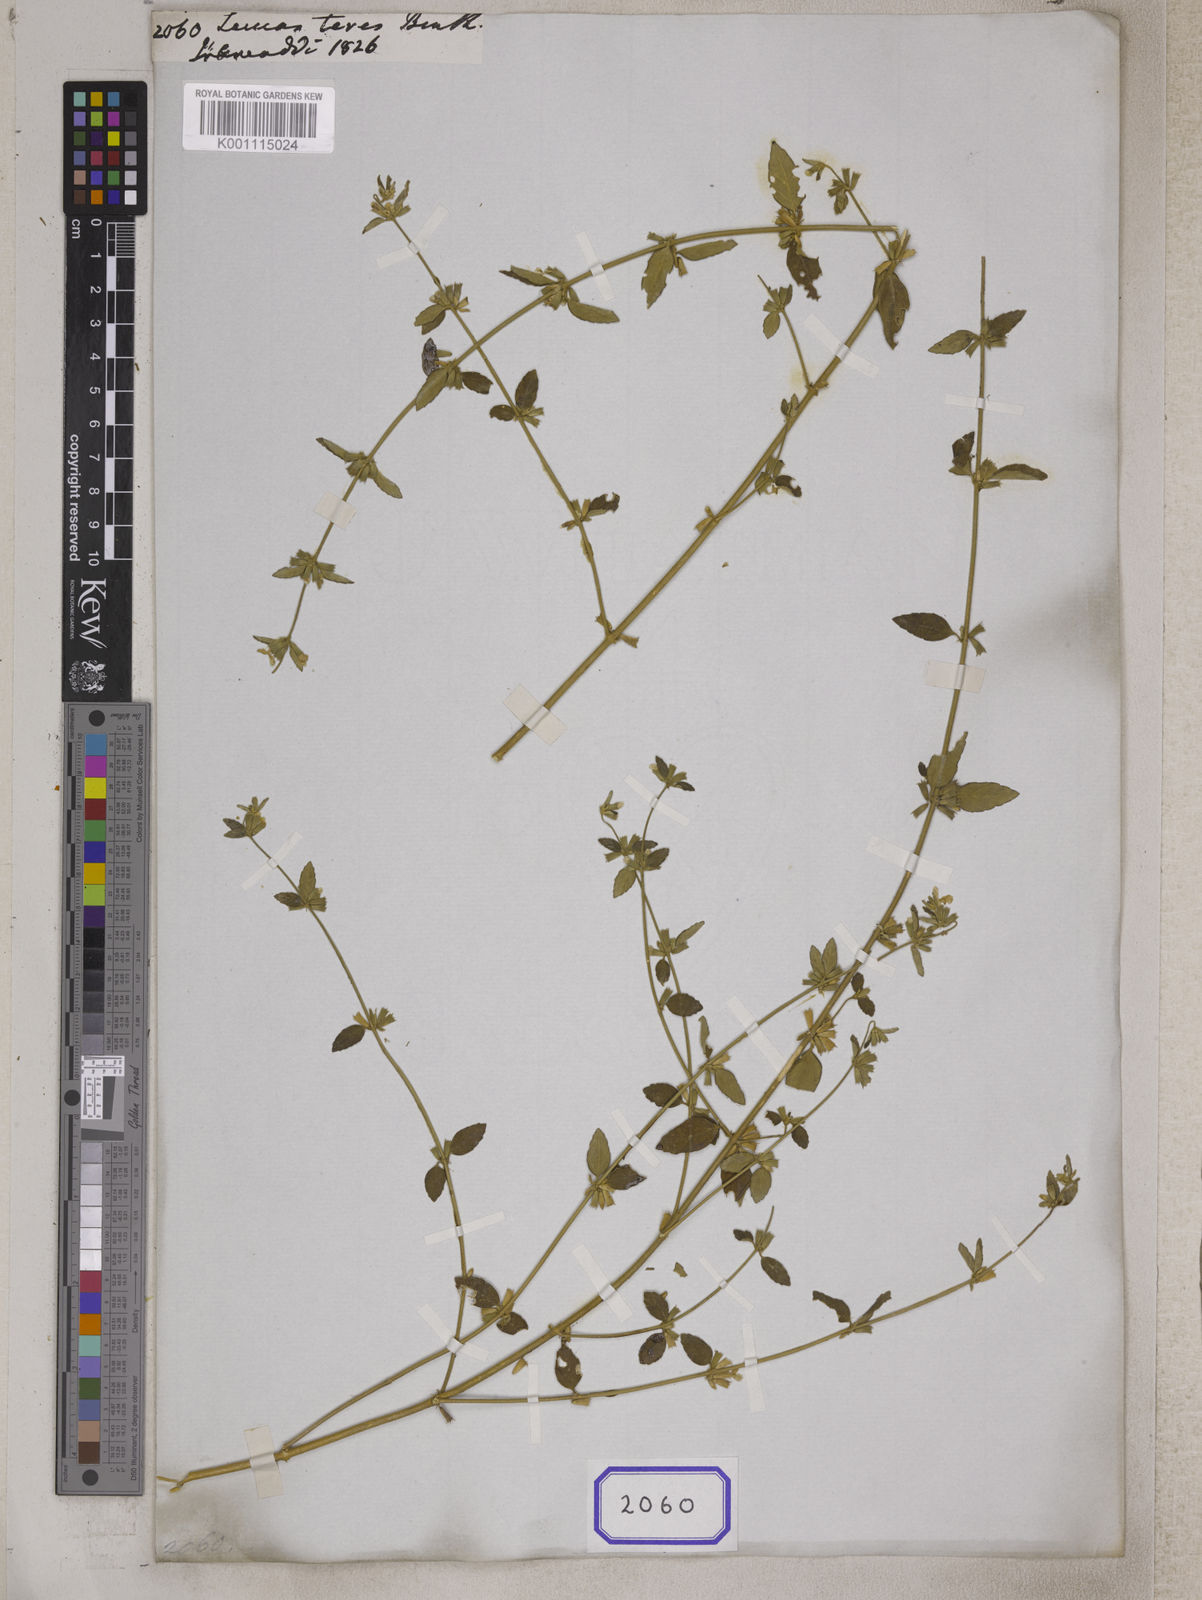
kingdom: Plantae
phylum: Tracheophyta
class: Magnoliopsida
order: Lamiales
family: Lamiaceae
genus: Leucas
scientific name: Leucas teres
